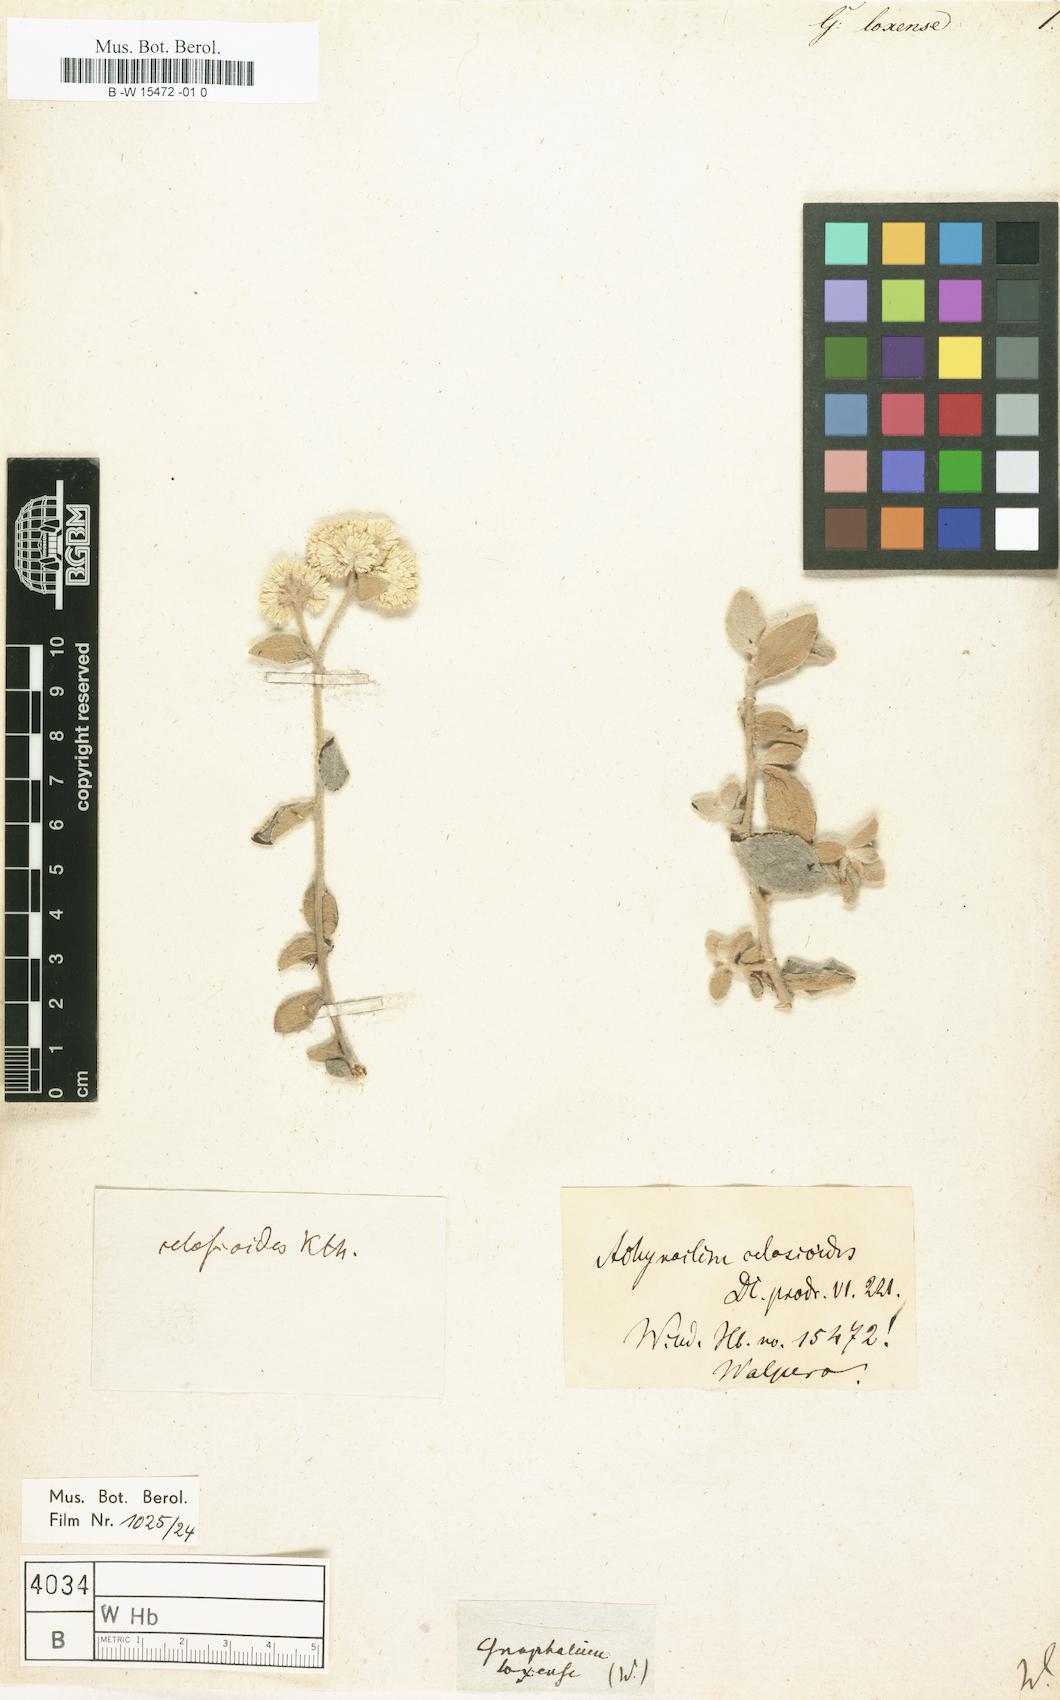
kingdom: Plantae
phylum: Tracheophyta
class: Magnoliopsida
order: Asterales
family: Asteraceae
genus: Achyrocline
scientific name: Achyrocline celosioides
